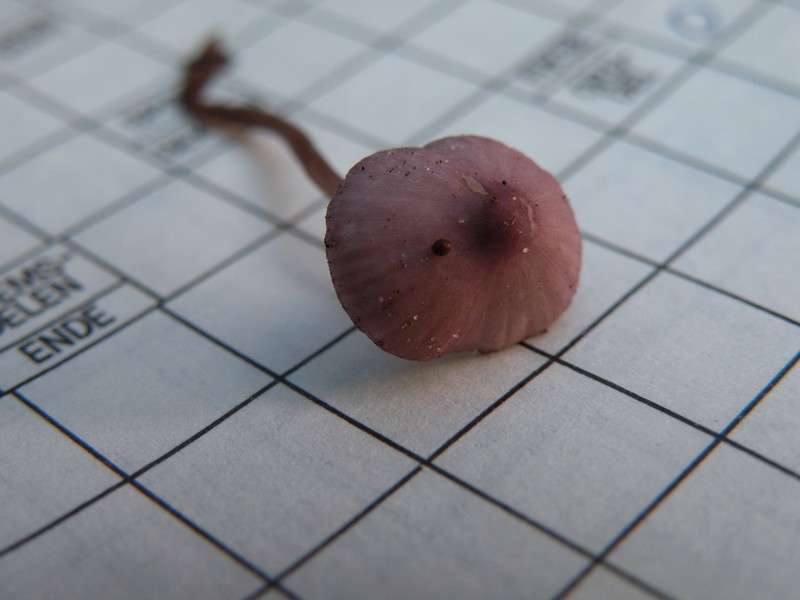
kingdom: Fungi
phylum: Basidiomycota
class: Agaricomycetes
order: Agaricales
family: Mycenaceae
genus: Mycena
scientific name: Mycena purpureofusca
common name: purpur-huesvamp
